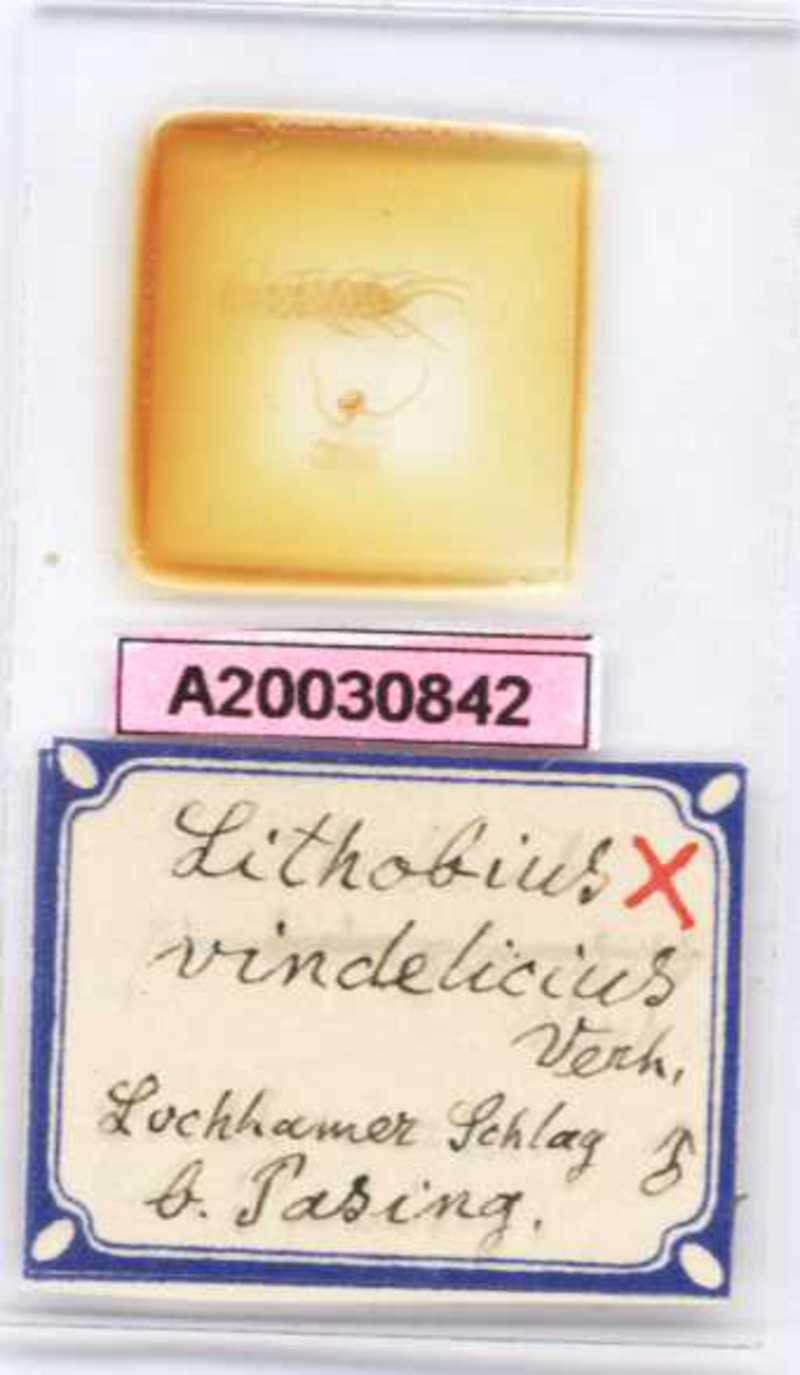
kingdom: Animalia
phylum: Arthropoda
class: Chilopoda
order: Lithobiomorpha
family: Lithobiidae
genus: Lithobius
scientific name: Lithobius subtilis
